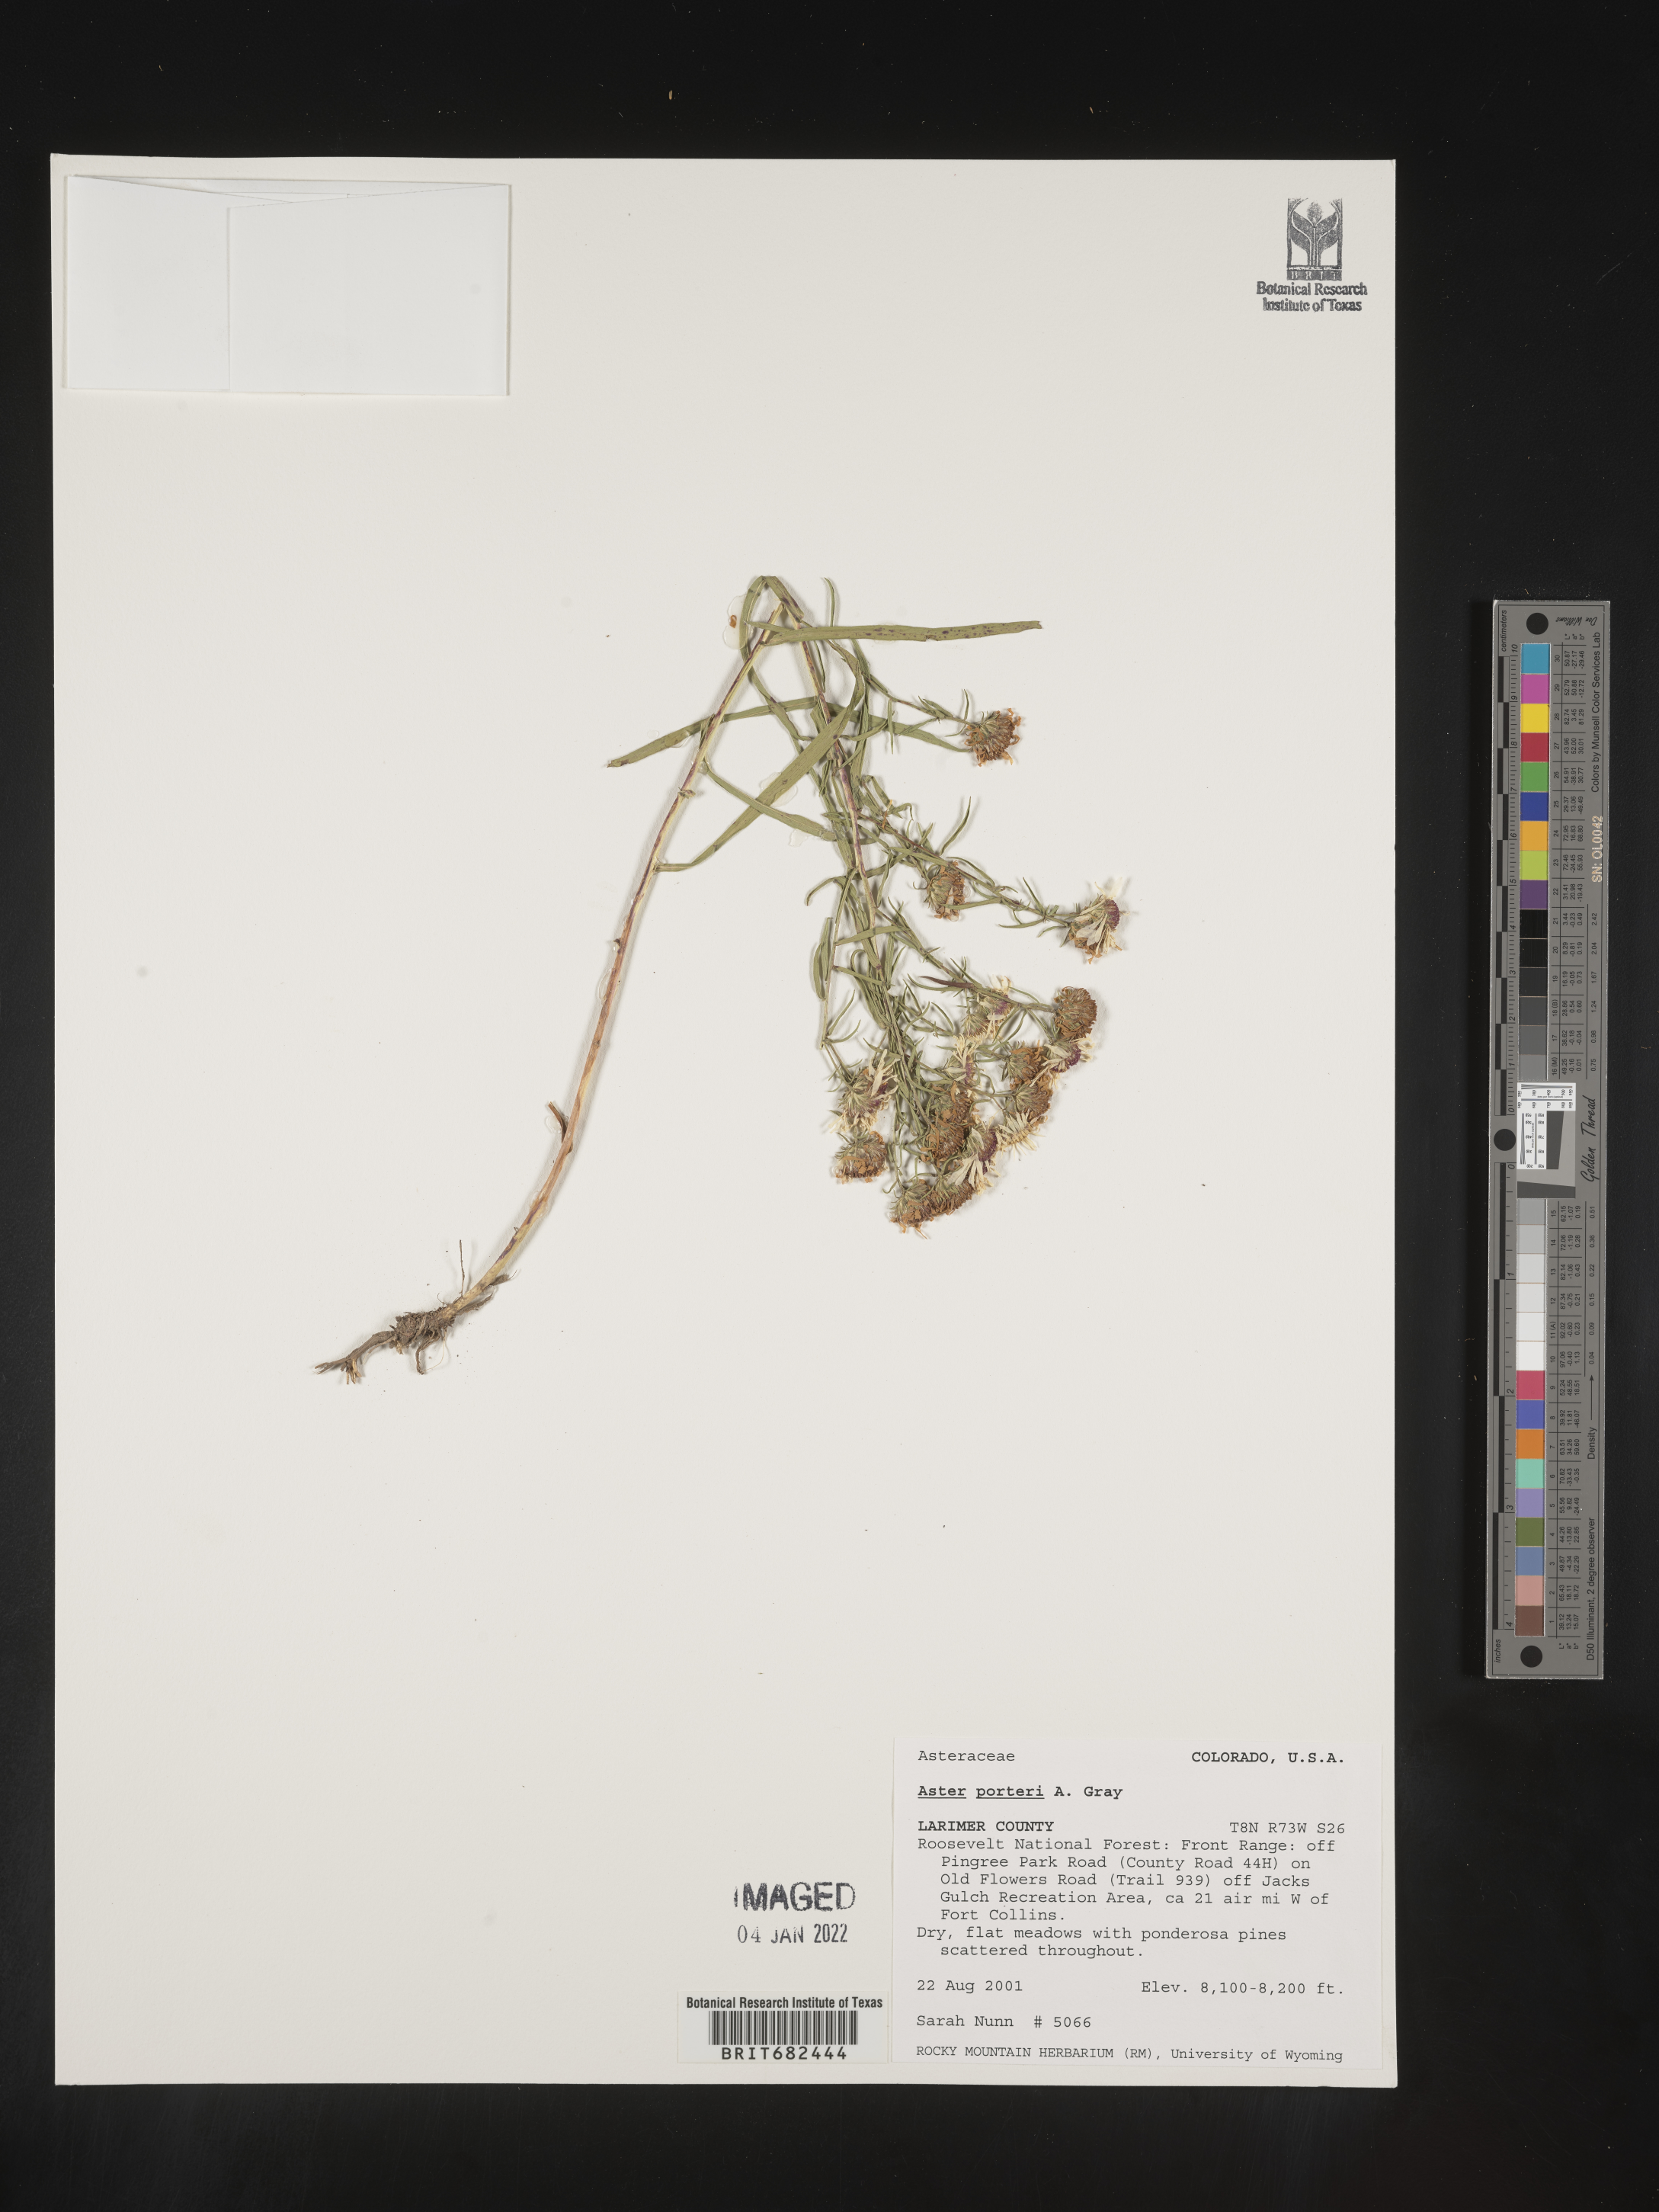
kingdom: Plantae
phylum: Tracheophyta
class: Magnoliopsida
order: Asterales
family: Asteraceae
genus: Aster
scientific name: Aster
